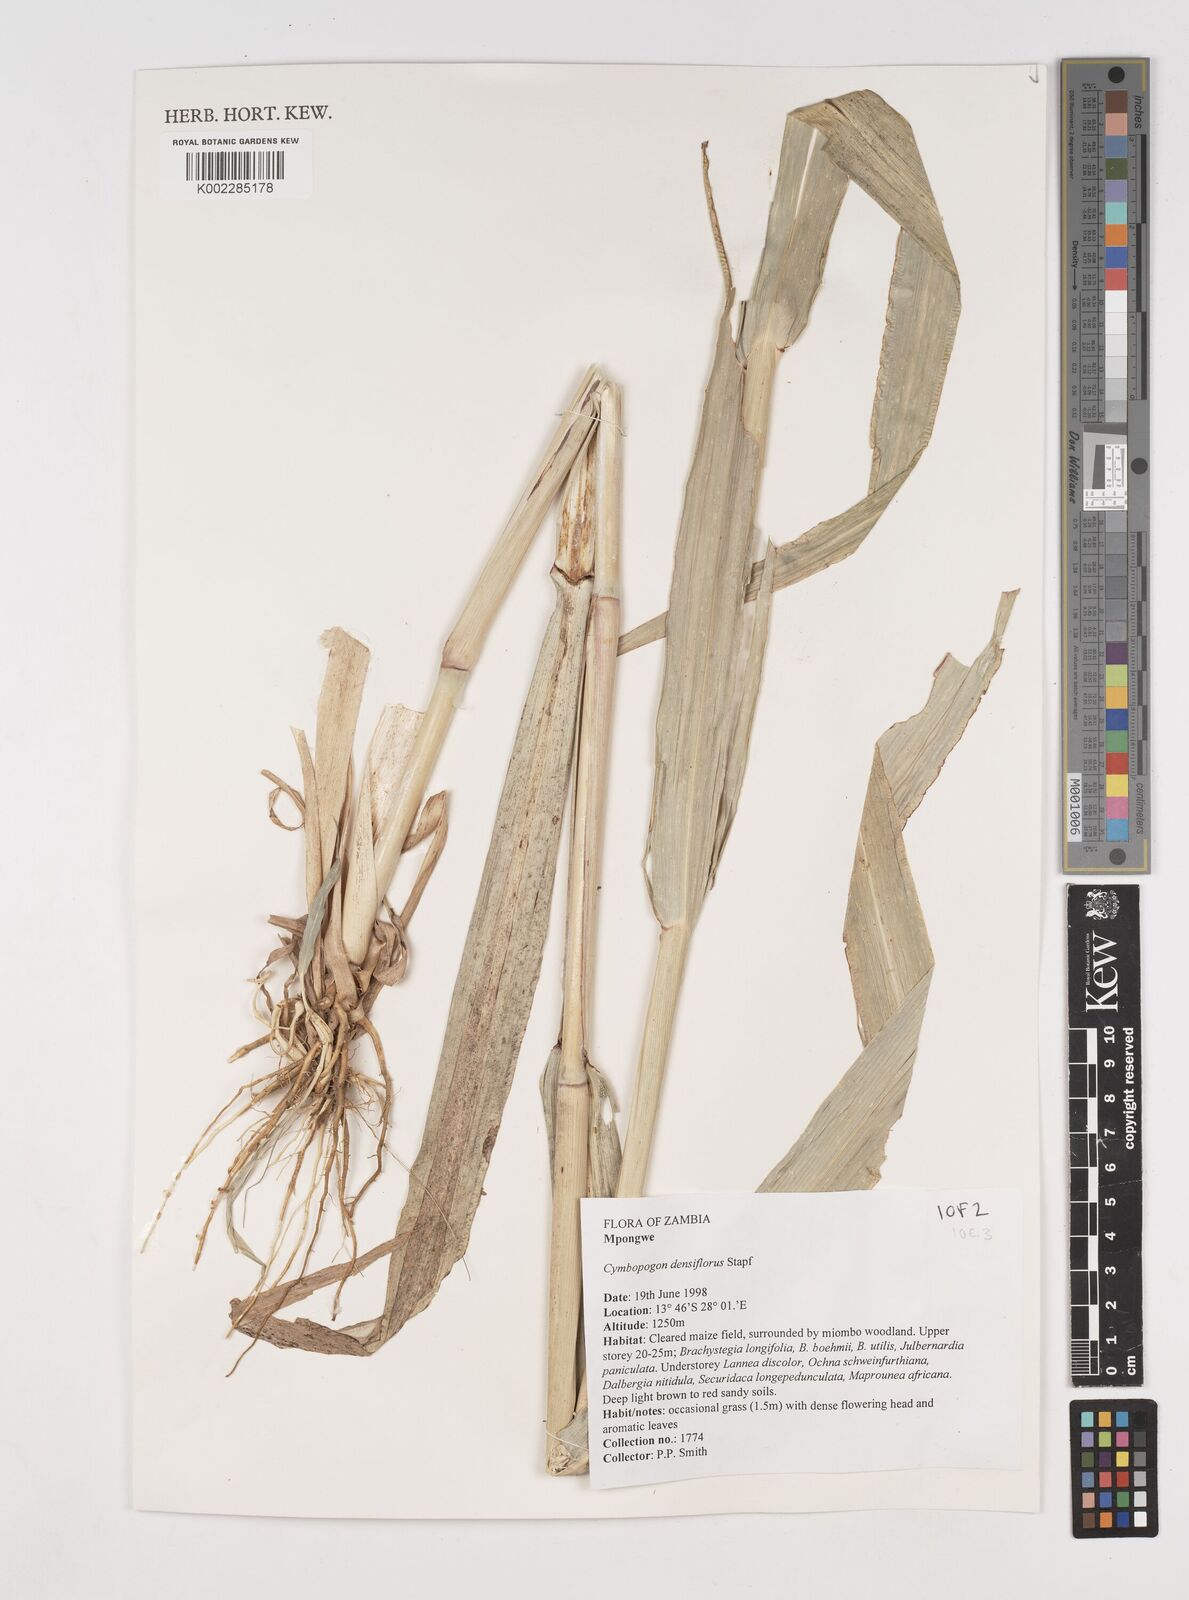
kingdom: Plantae
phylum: Tracheophyta
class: Liliopsida
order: Poales
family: Poaceae
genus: Cymbopogon
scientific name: Cymbopogon densiflorus
